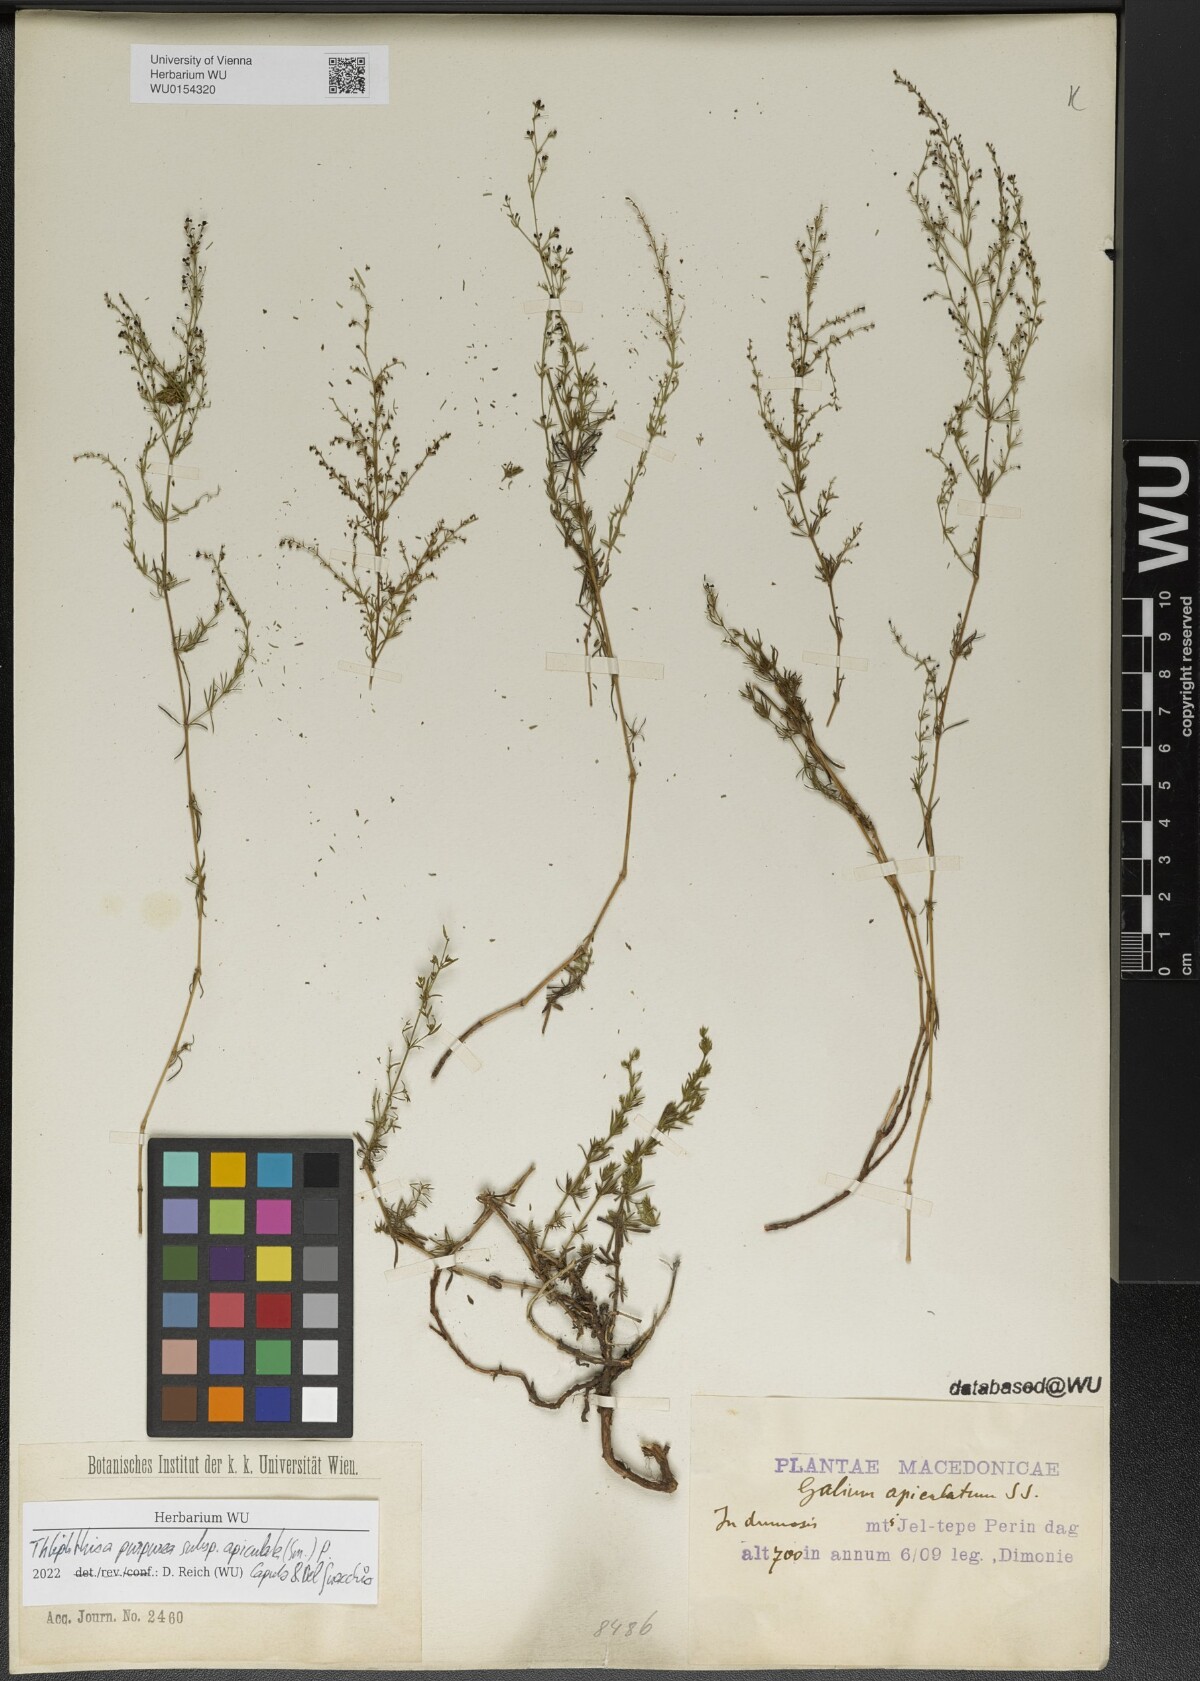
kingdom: Plantae
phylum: Tracheophyta
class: Magnoliopsida
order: Gentianales
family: Rubiaceae
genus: Thliphthisa
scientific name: Thliphthisa purpurea
